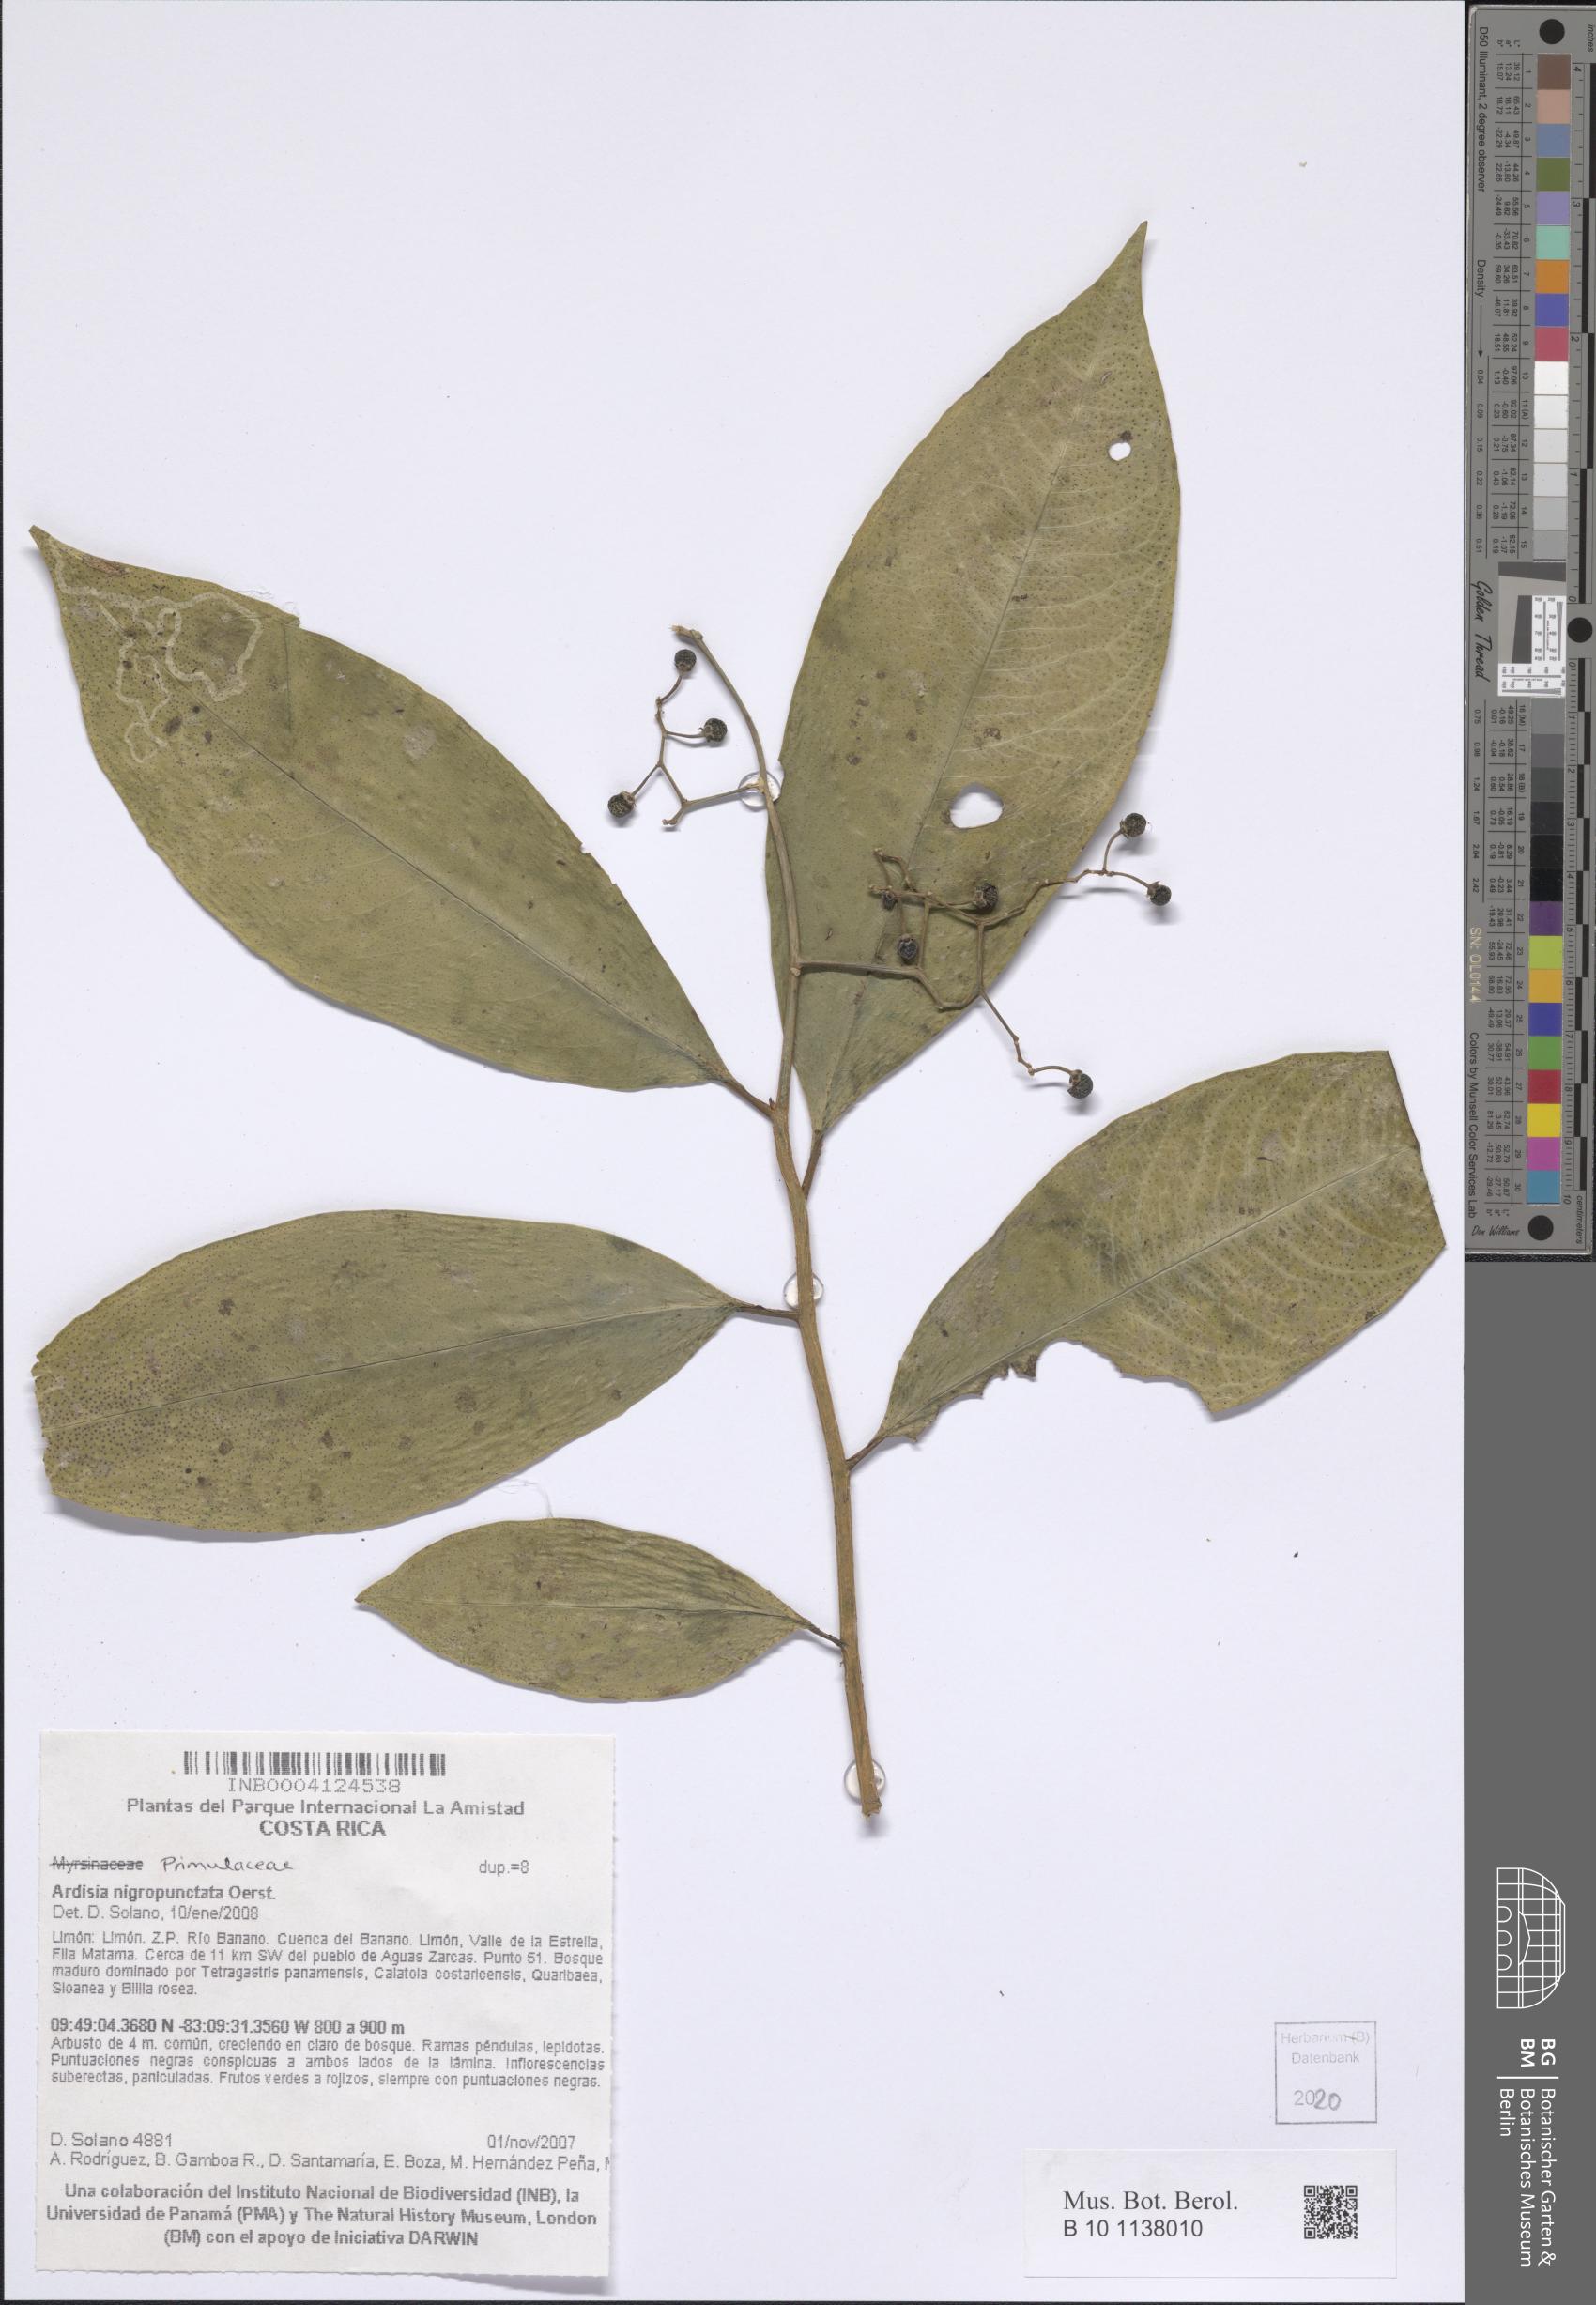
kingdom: Plantae
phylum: Tracheophyta
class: Magnoliopsida
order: Ericales
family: Primulaceae
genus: Ardisia
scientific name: Ardisia nigropunctata
